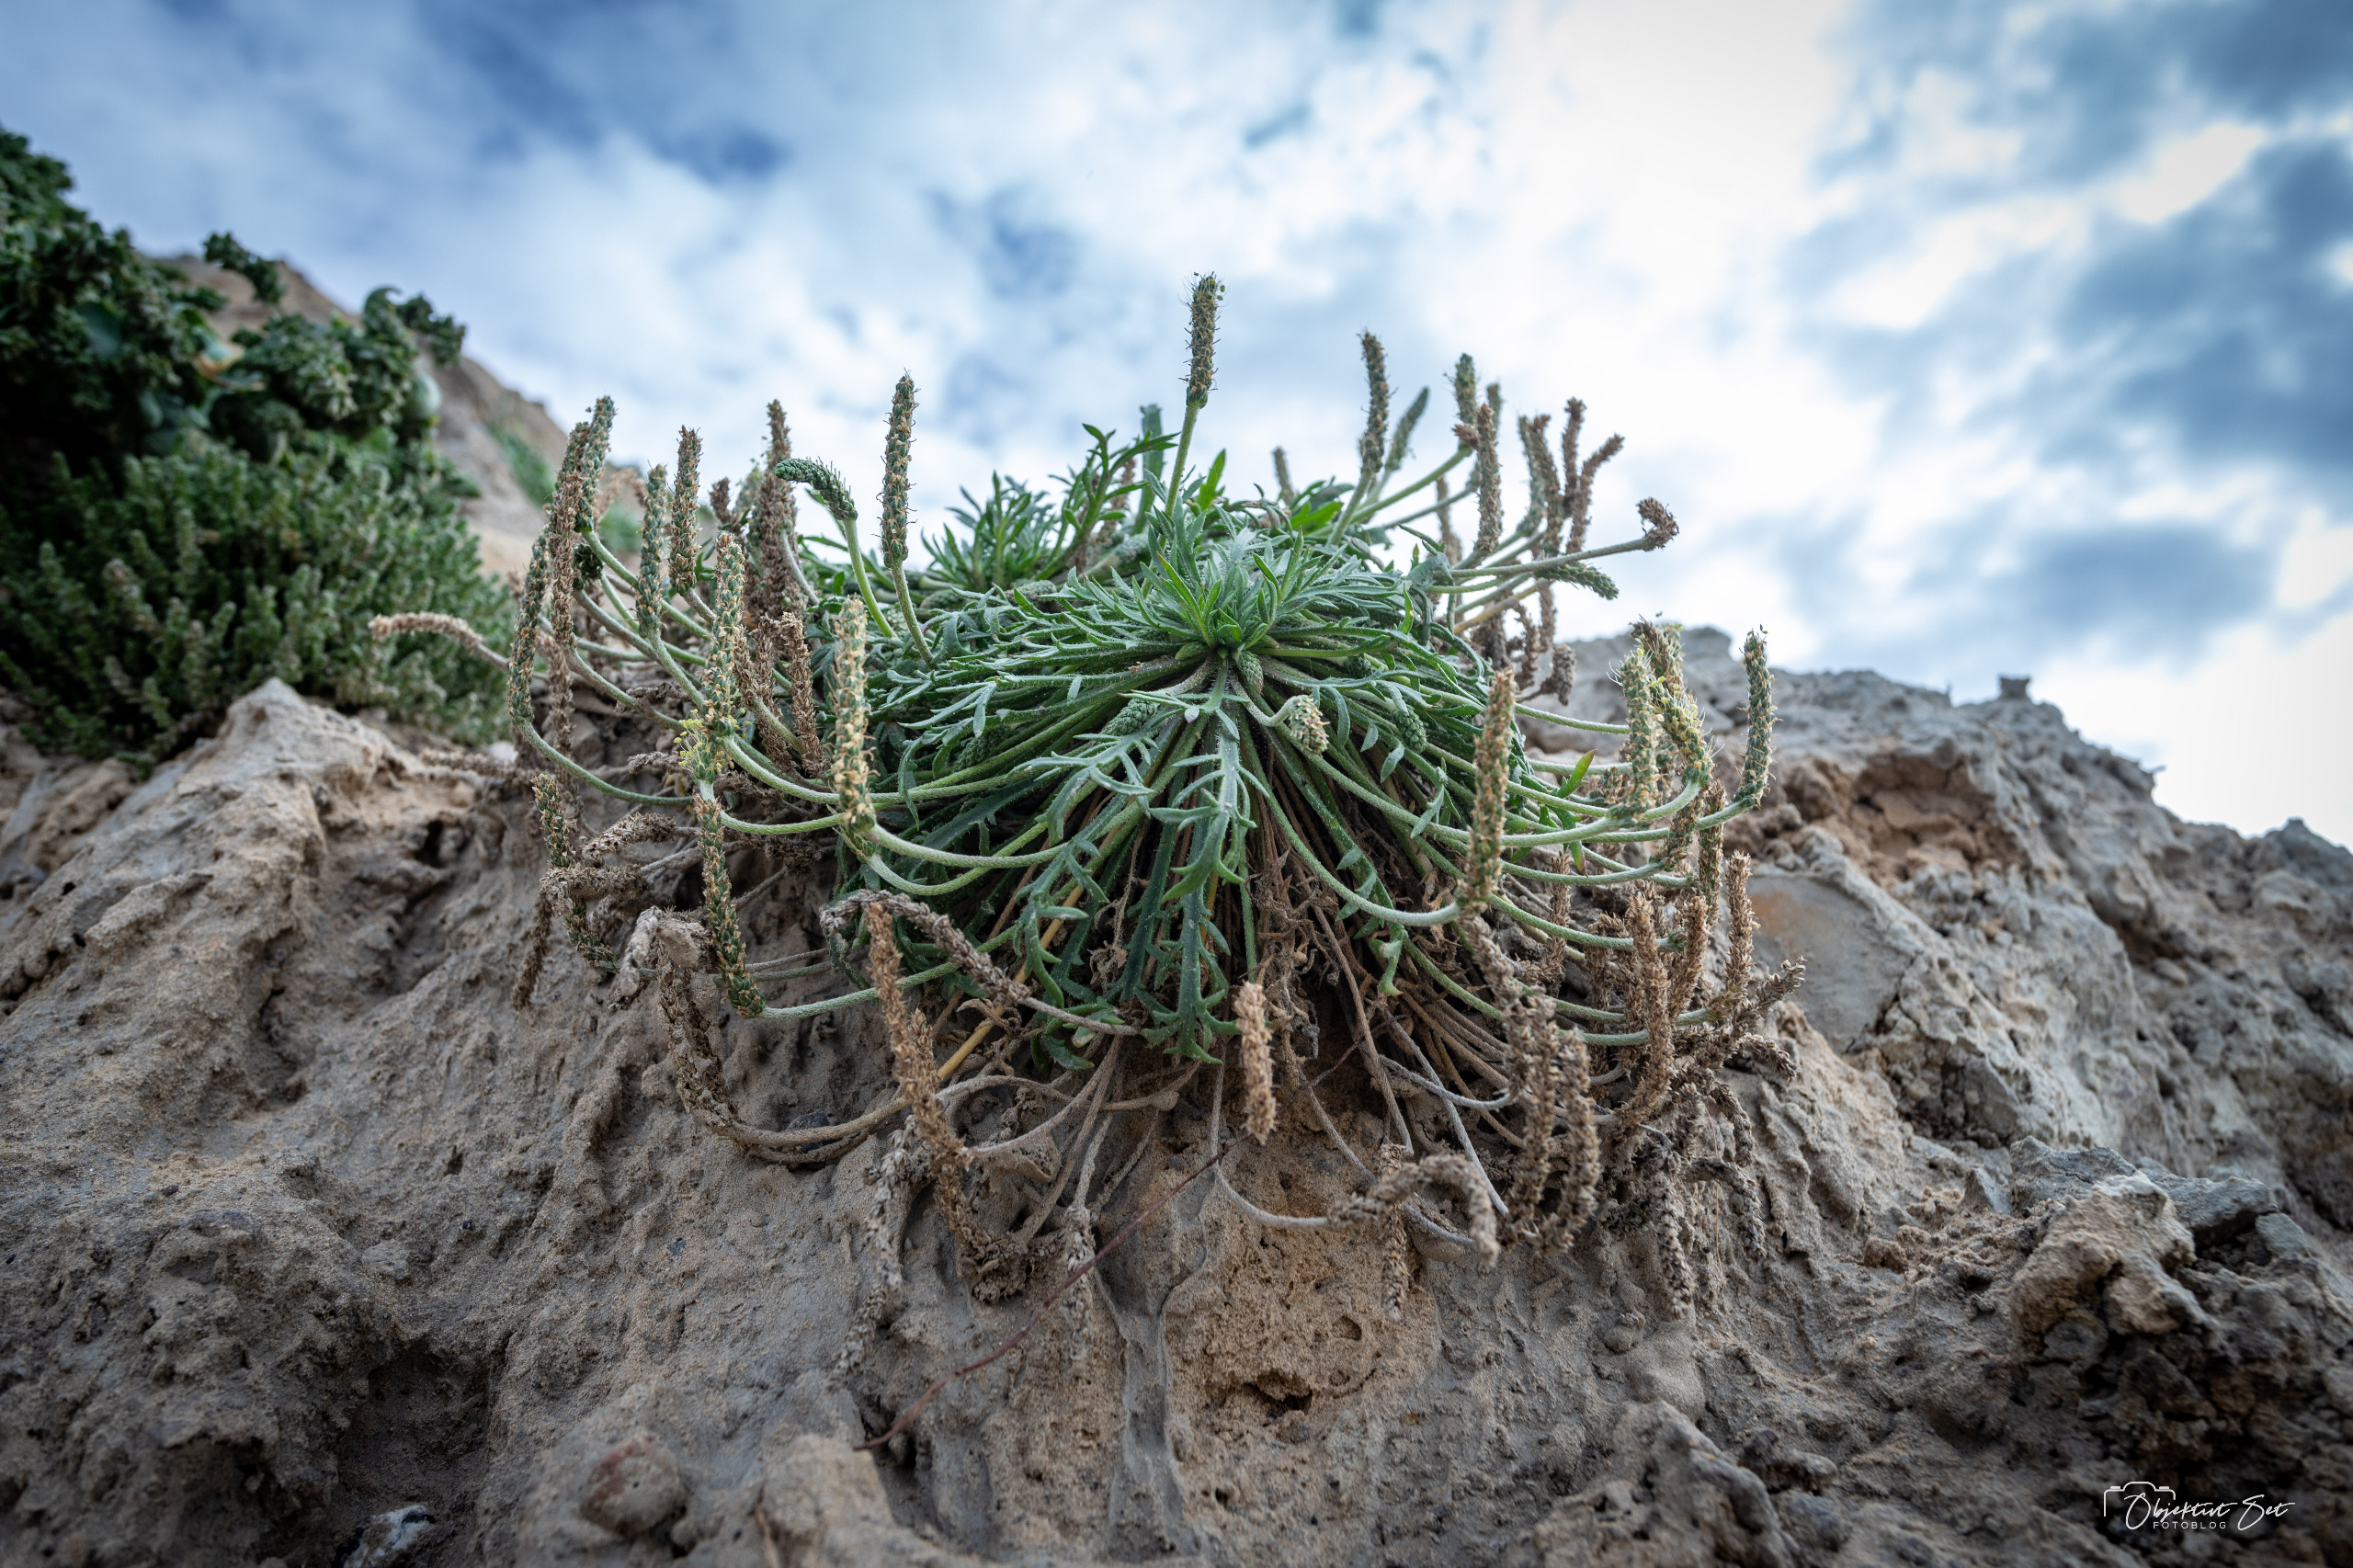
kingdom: Plantae
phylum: Tracheophyta
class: Magnoliopsida
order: Lamiales
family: Plantaginaceae
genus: Plantago
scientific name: Plantago coronopus
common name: Fliget vejbred
